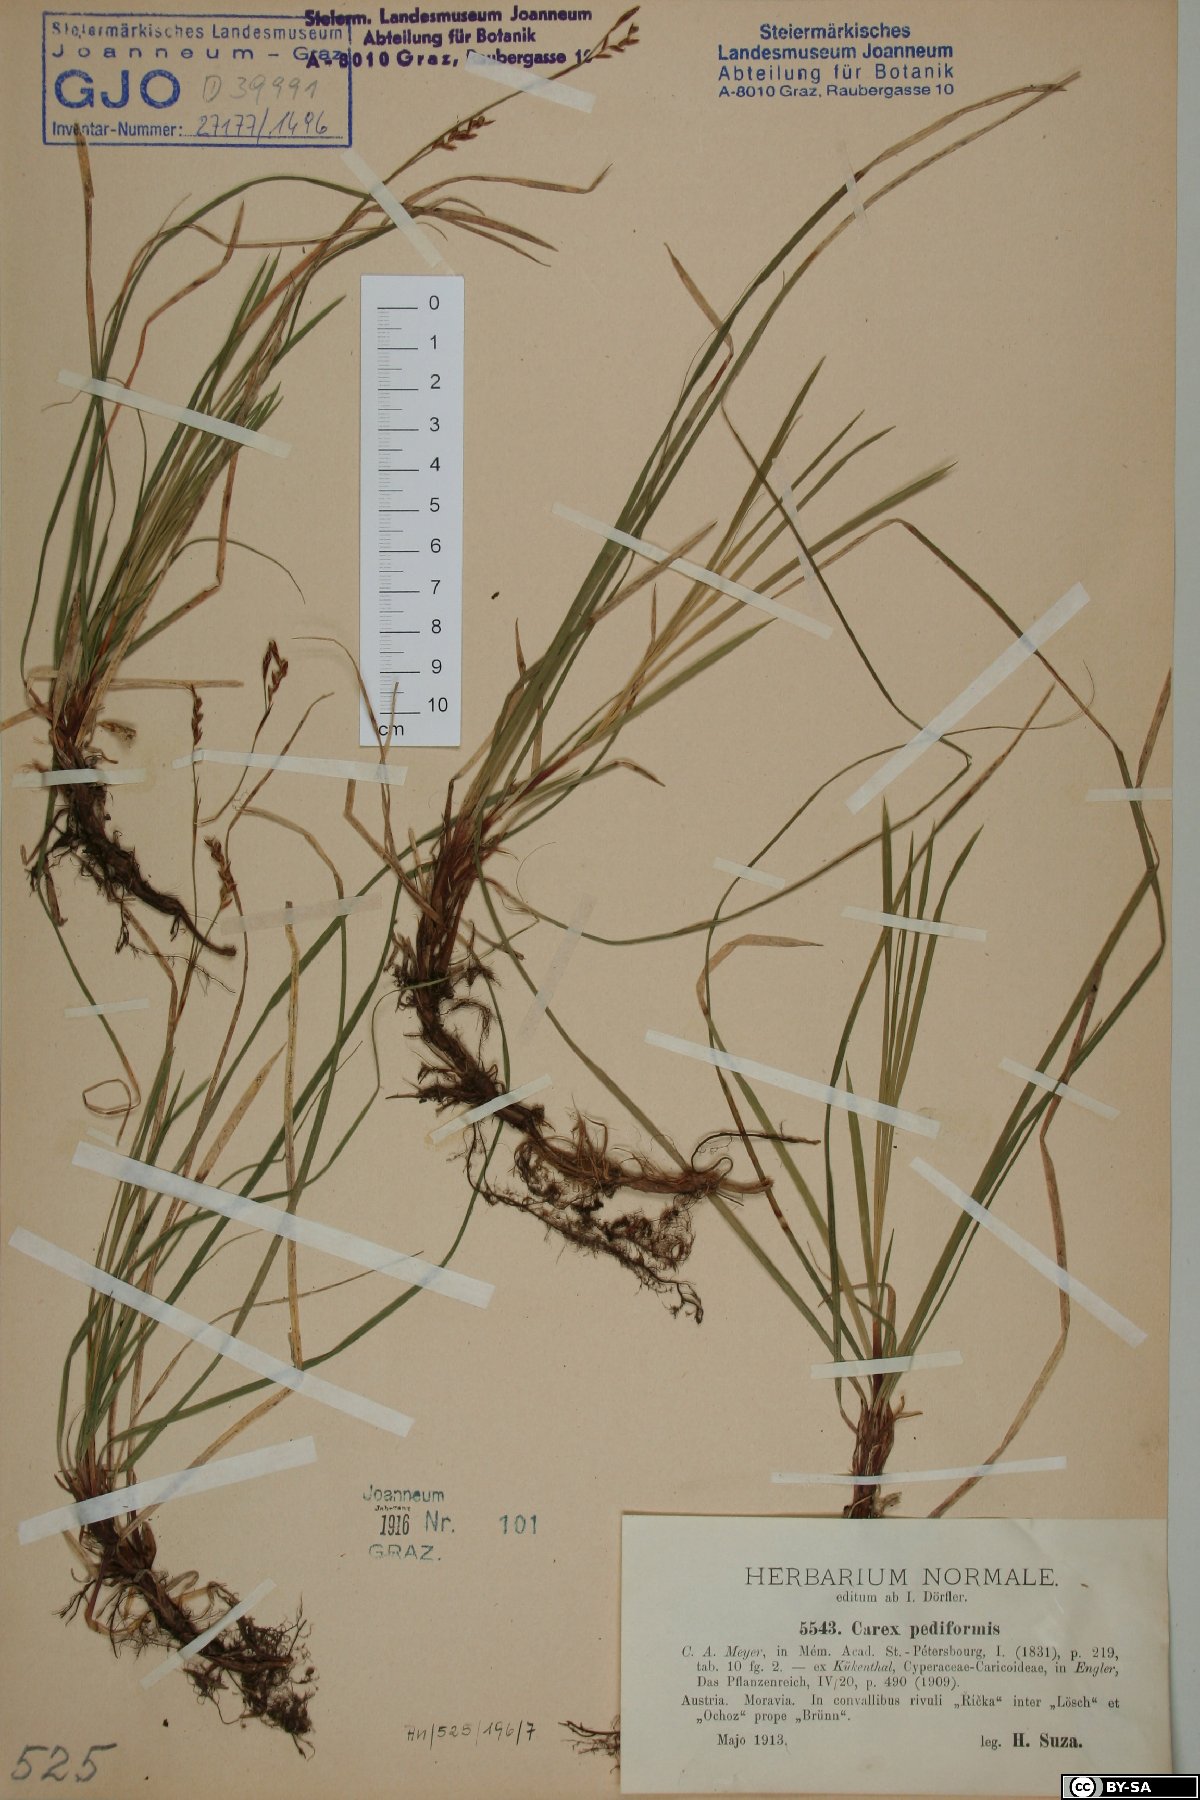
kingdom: Plantae
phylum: Tracheophyta
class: Liliopsida
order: Poales
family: Cyperaceae
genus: Carex
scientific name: Carex pediformis
